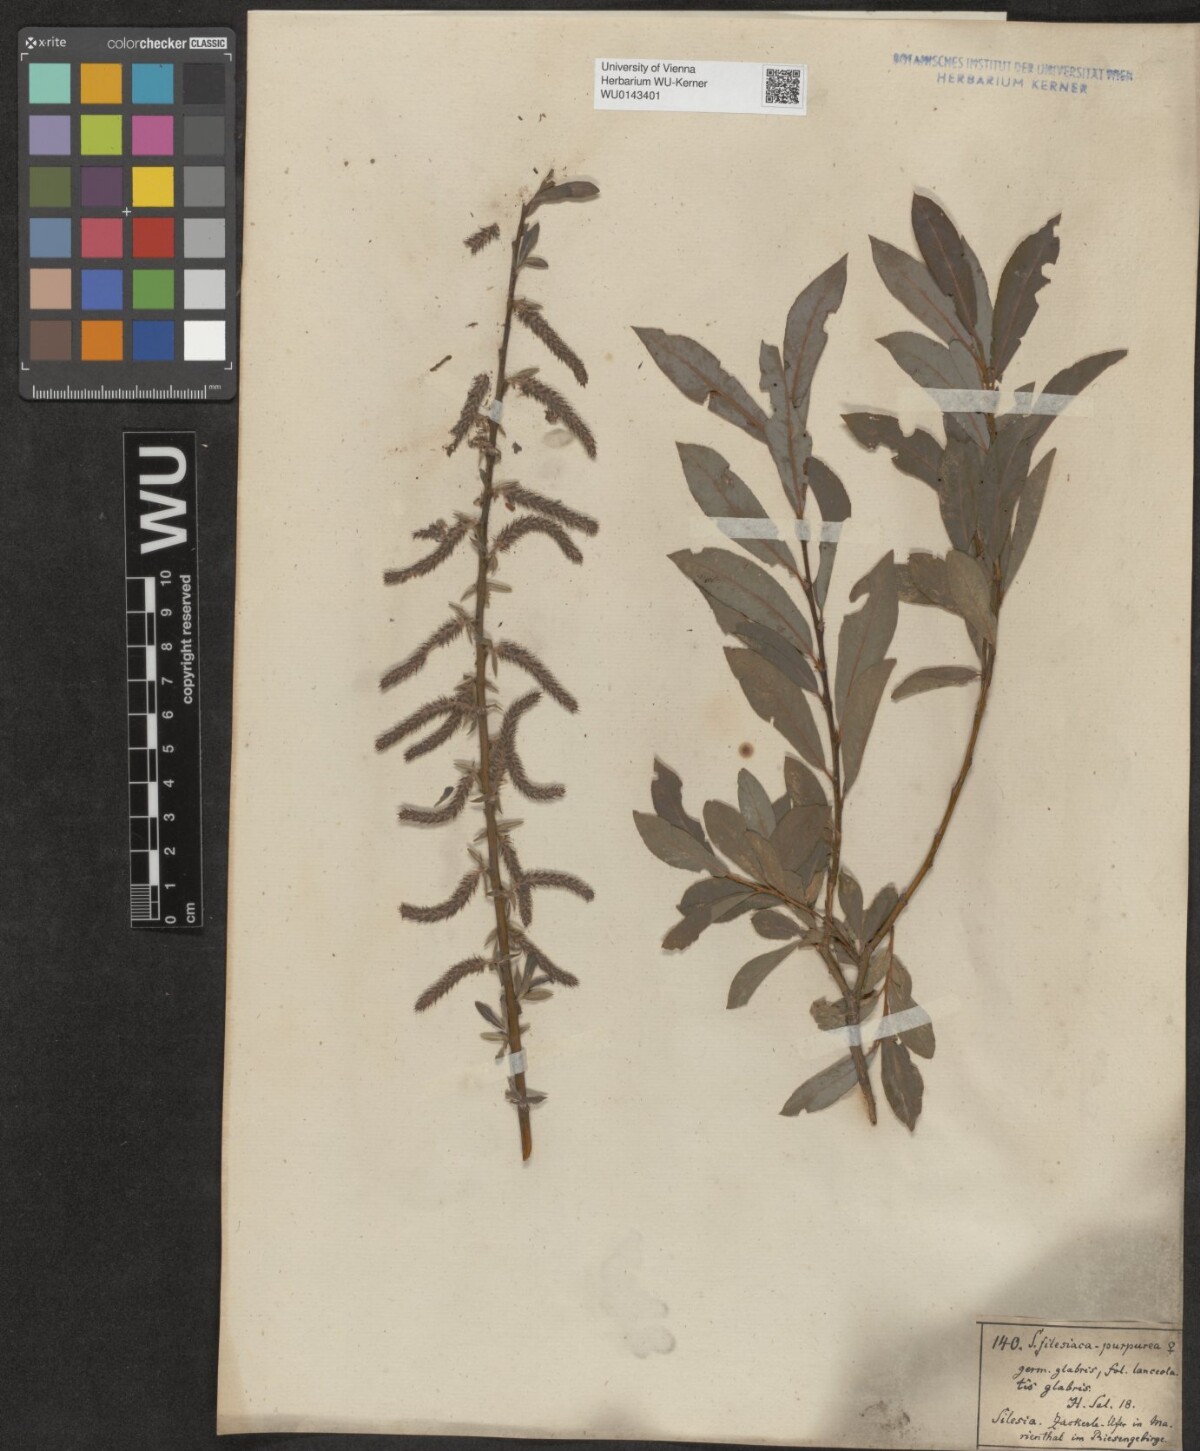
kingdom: Plantae
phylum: Tracheophyta
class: Magnoliopsida
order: Malpighiales
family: Salicaceae
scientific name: Salicaceae
